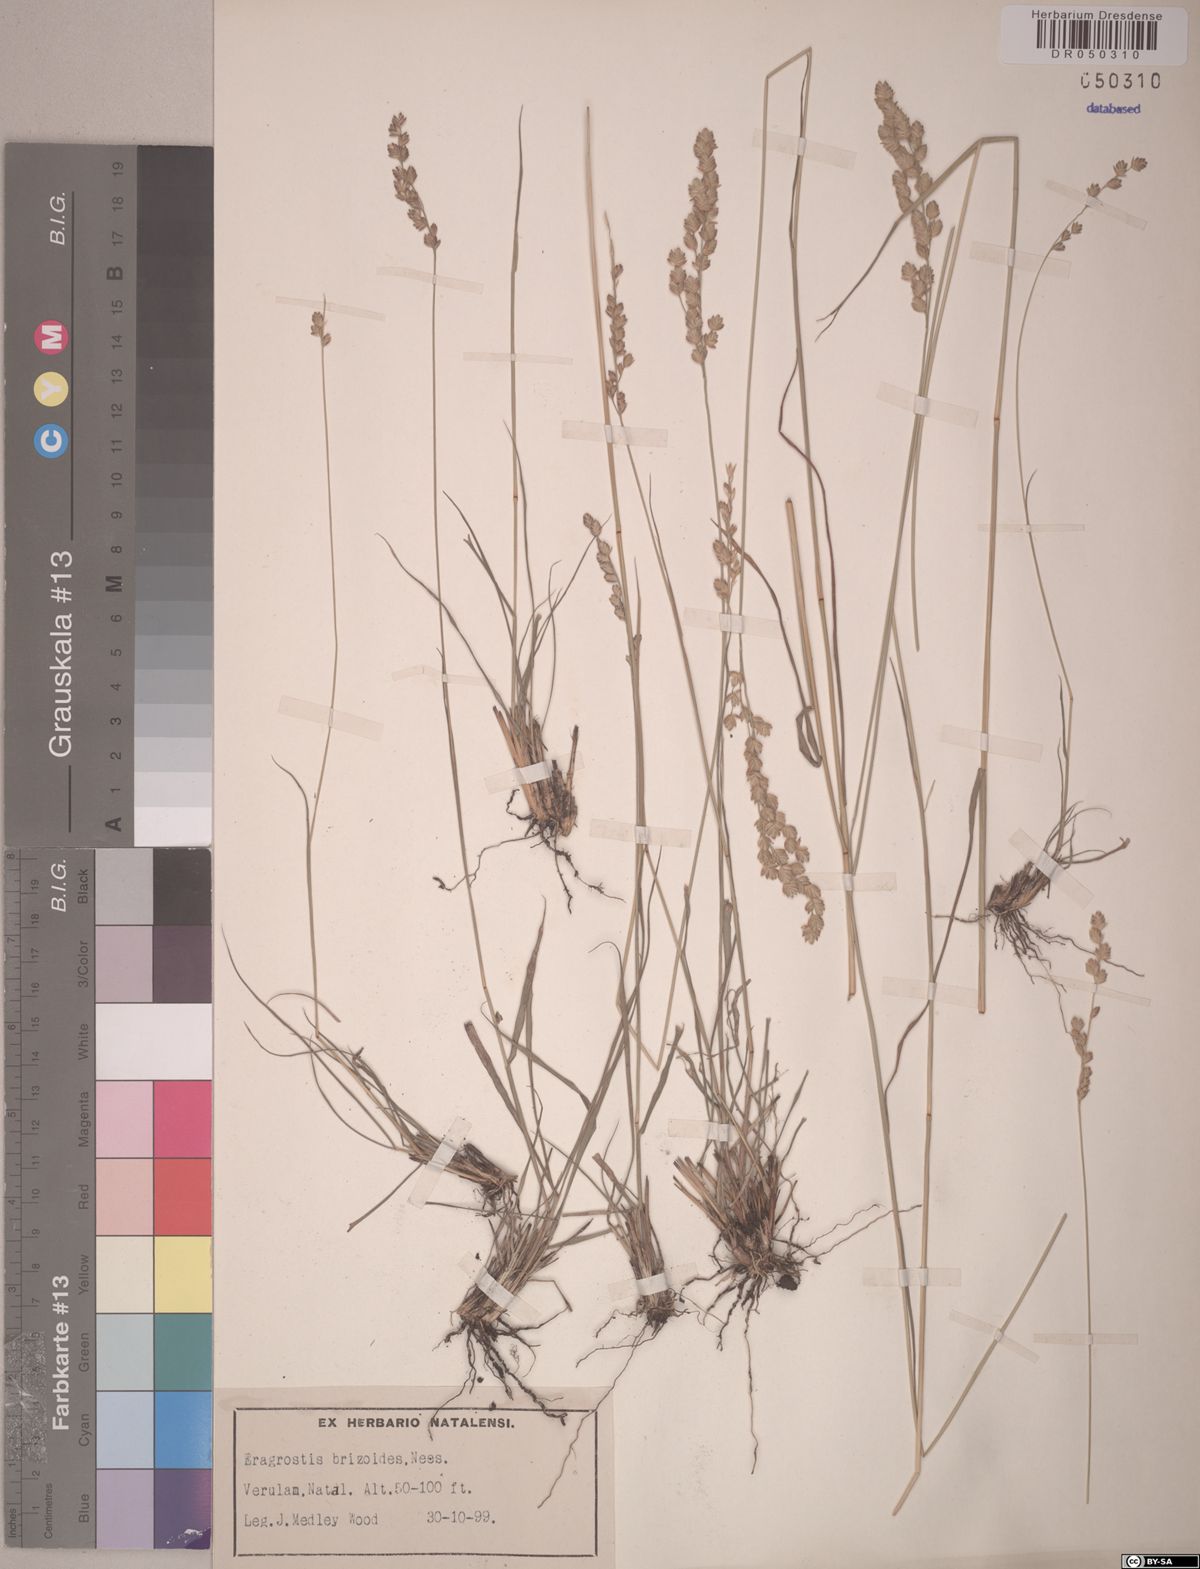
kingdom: Plantae
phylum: Tracheophyta
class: Liliopsida
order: Poales
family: Poaceae
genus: Eragrostis
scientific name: Eragrostis capensis
